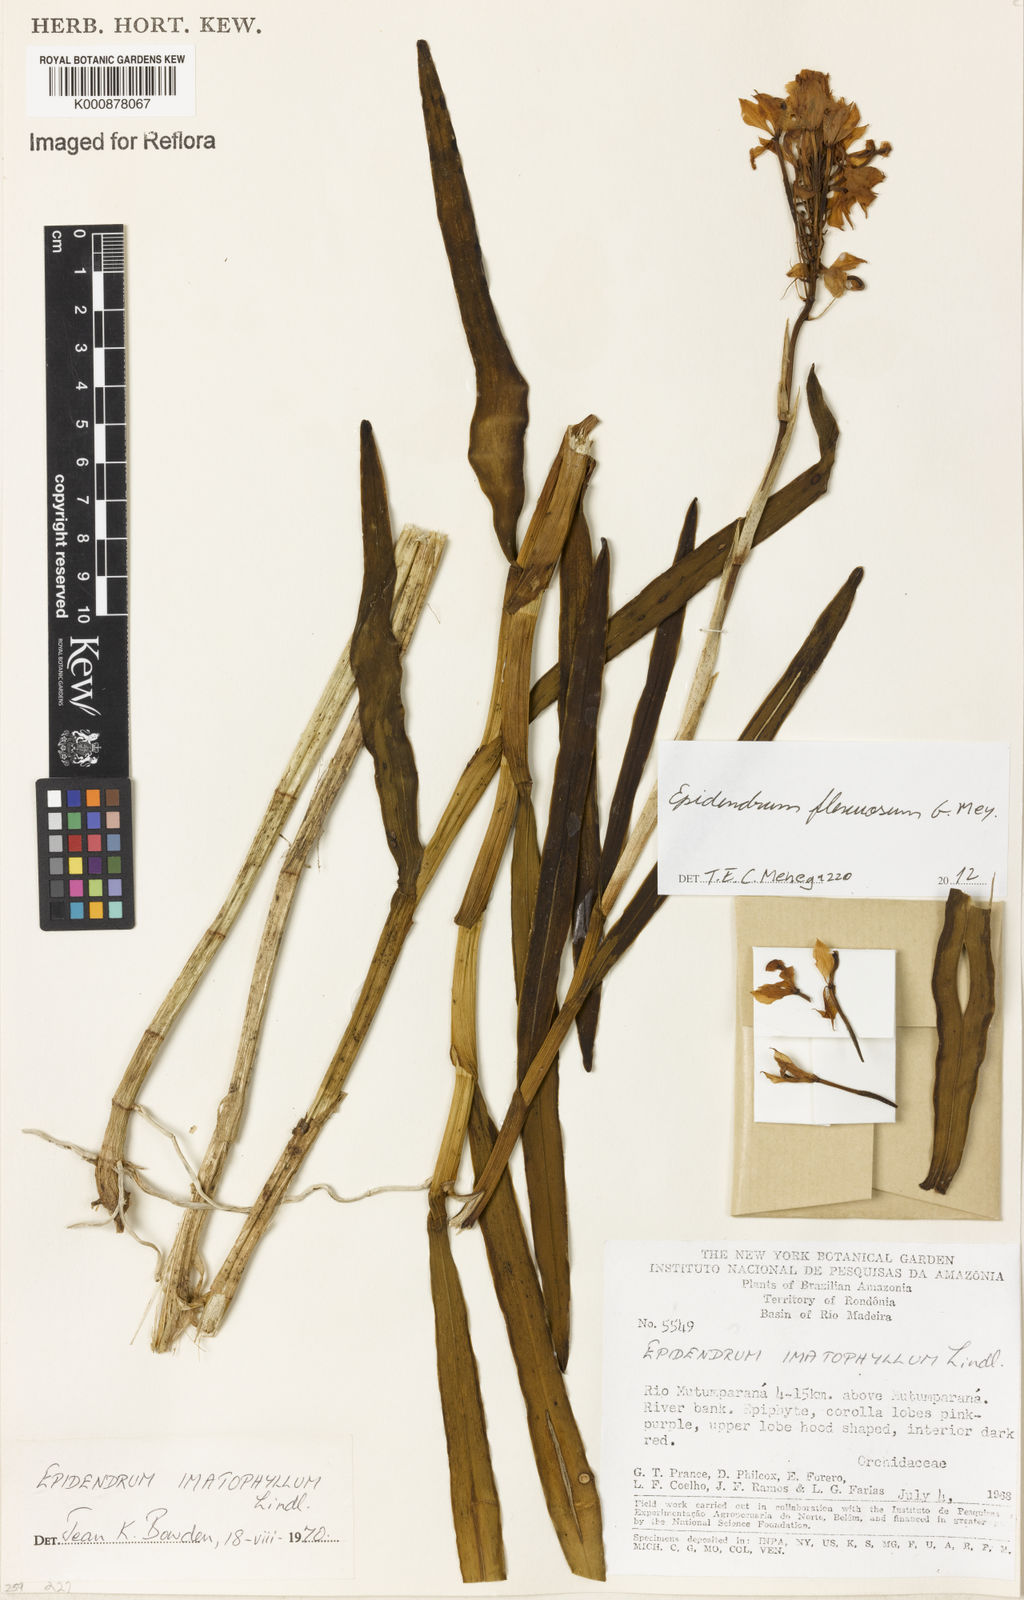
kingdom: Plantae
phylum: Tracheophyta
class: Liliopsida
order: Asparagales
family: Orchidaceae
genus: Epidendrum
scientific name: Epidendrum flexuosum
